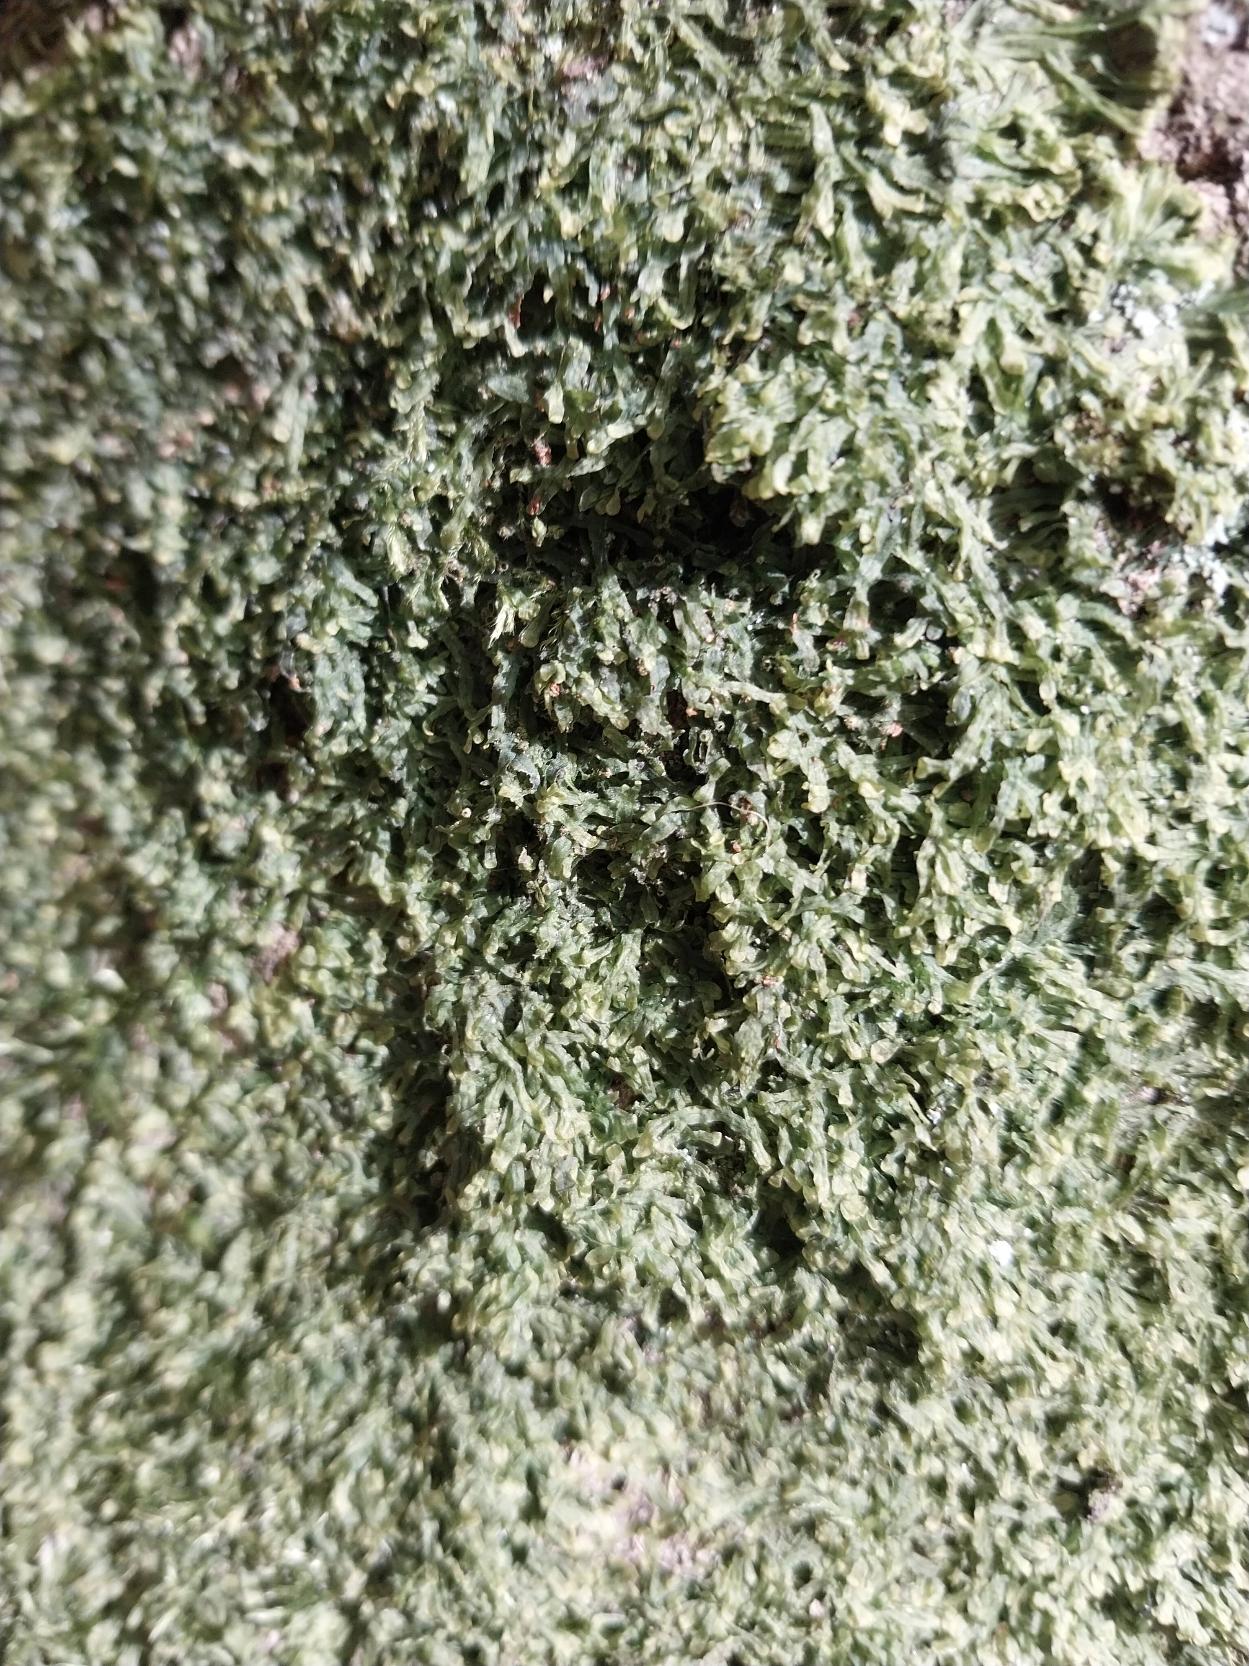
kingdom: Plantae
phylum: Marchantiophyta
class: Jungermanniopsida
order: Metzgeriales
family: Metzgeriaceae
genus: Metzgeria
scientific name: Metzgeria furcata
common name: Almindelig gaffelløv
